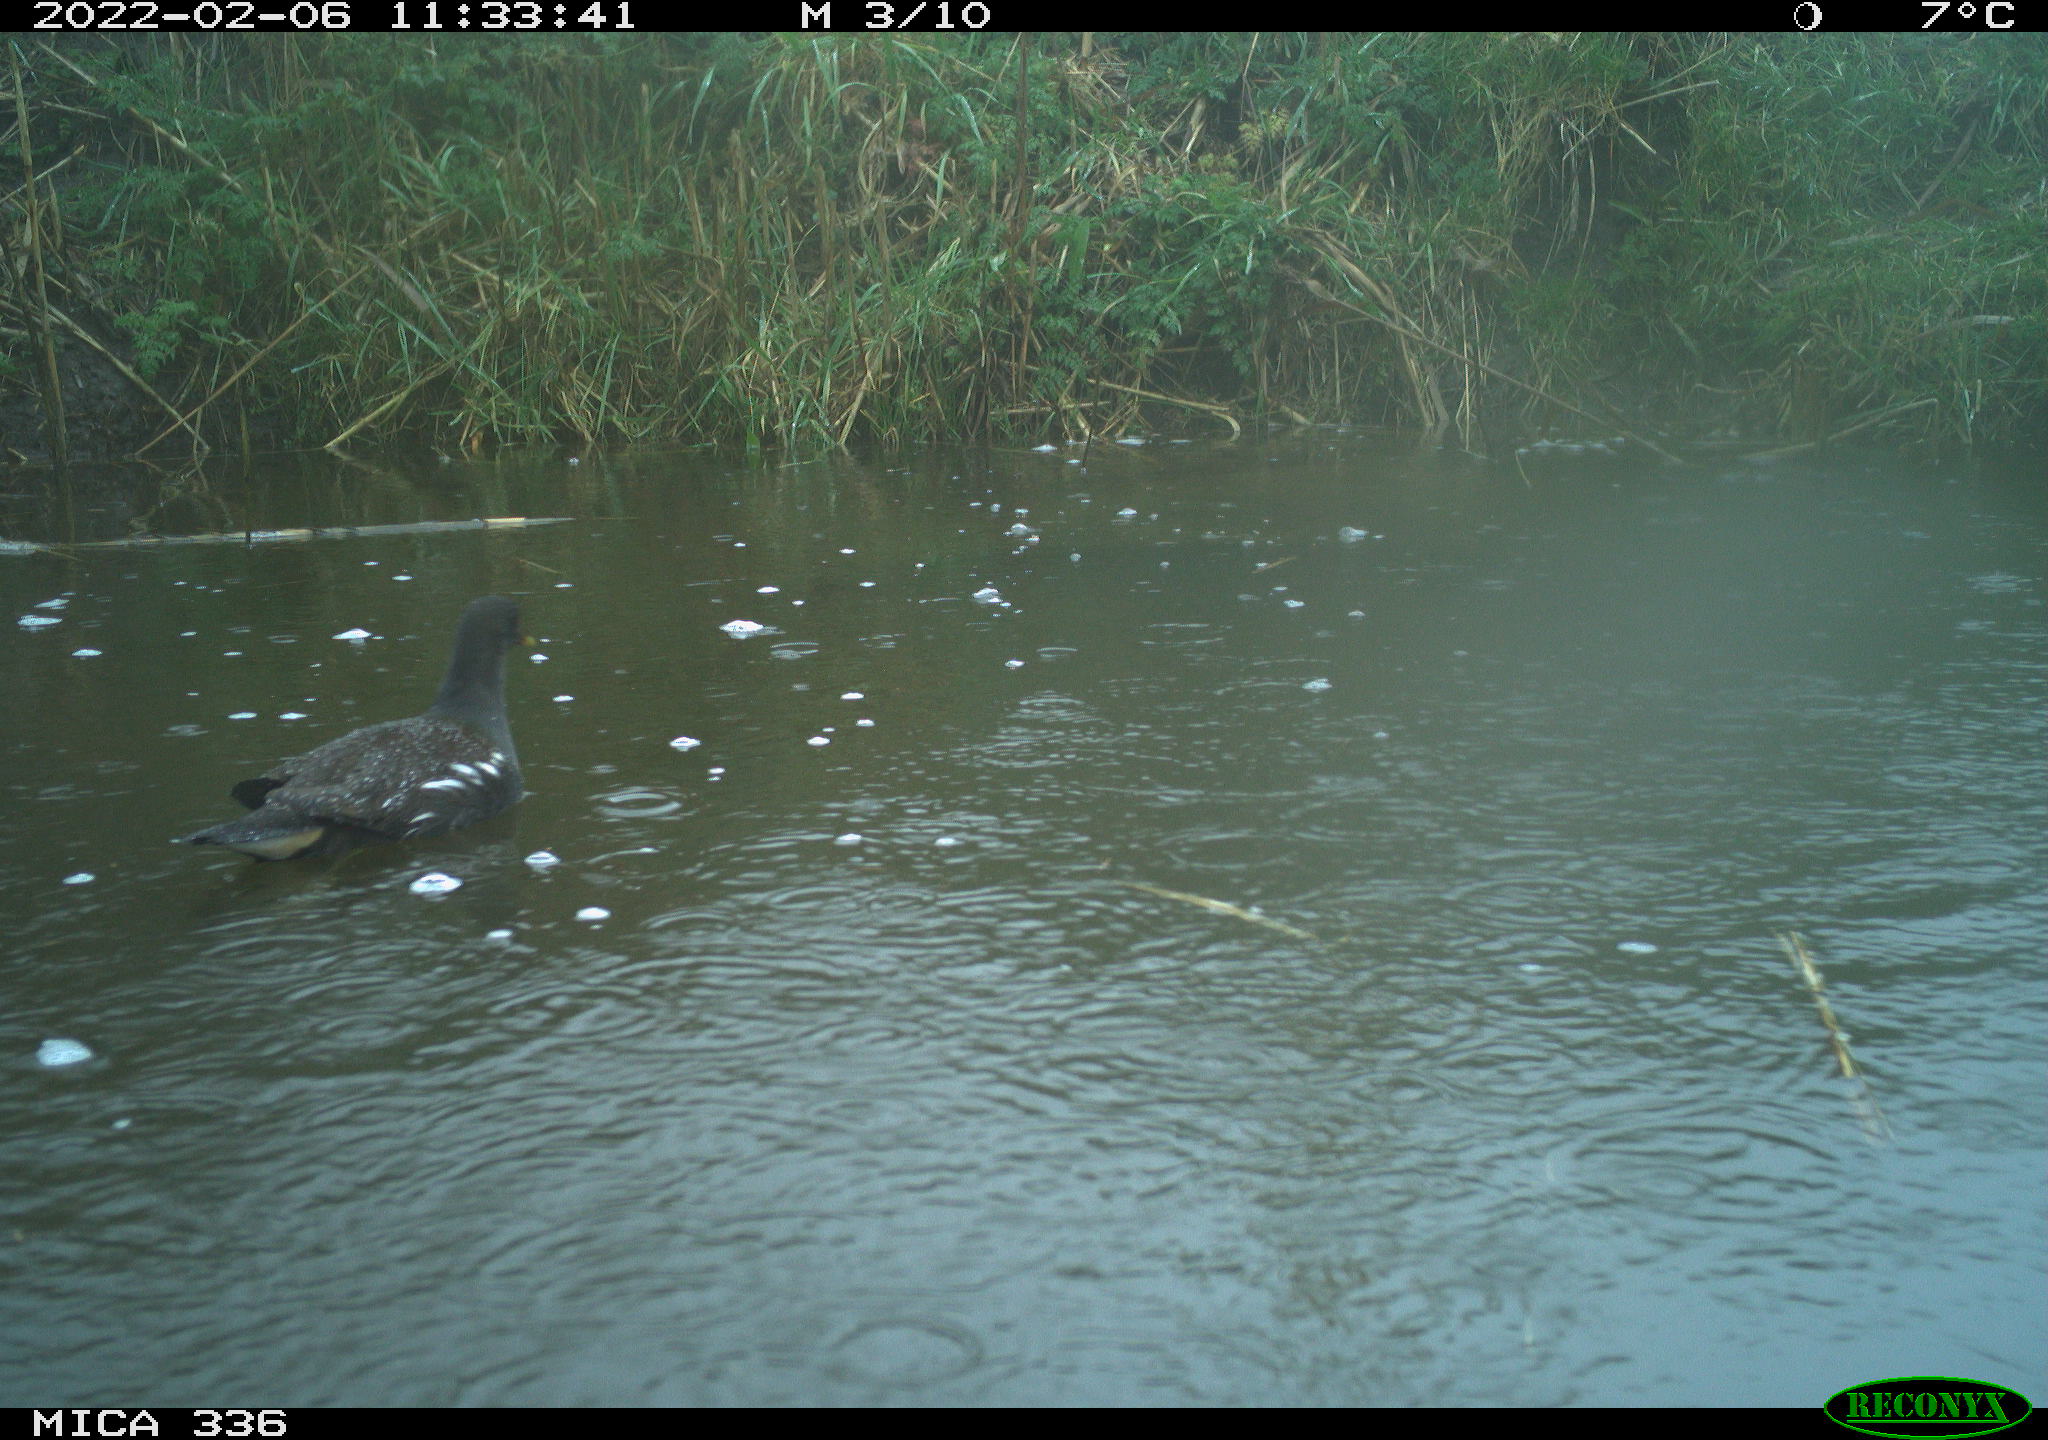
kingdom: Animalia
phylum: Chordata
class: Aves
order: Gruiformes
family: Rallidae
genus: Gallinula
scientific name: Gallinula chloropus
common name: Common moorhen
